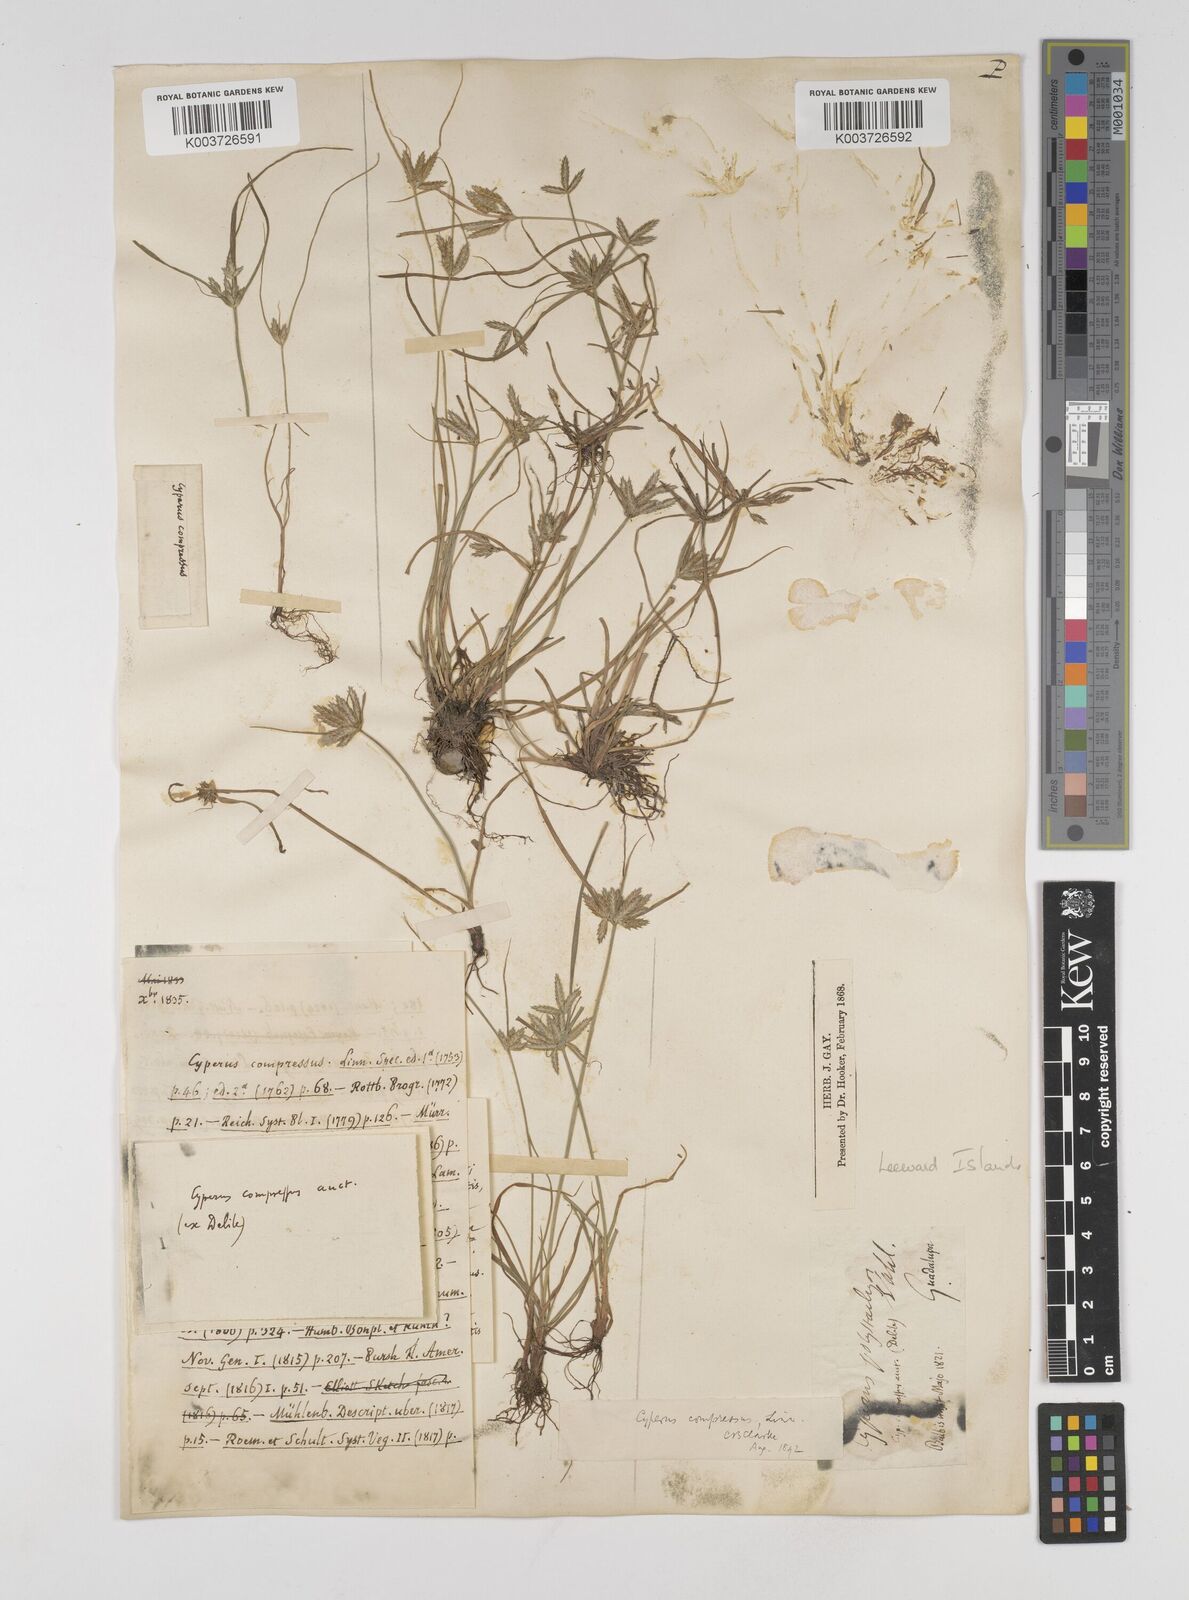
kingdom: Plantae
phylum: Tracheophyta
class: Liliopsida
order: Poales
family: Cyperaceae
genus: Cyperus
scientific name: Cyperus compressus
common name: Poorland flatsedge
